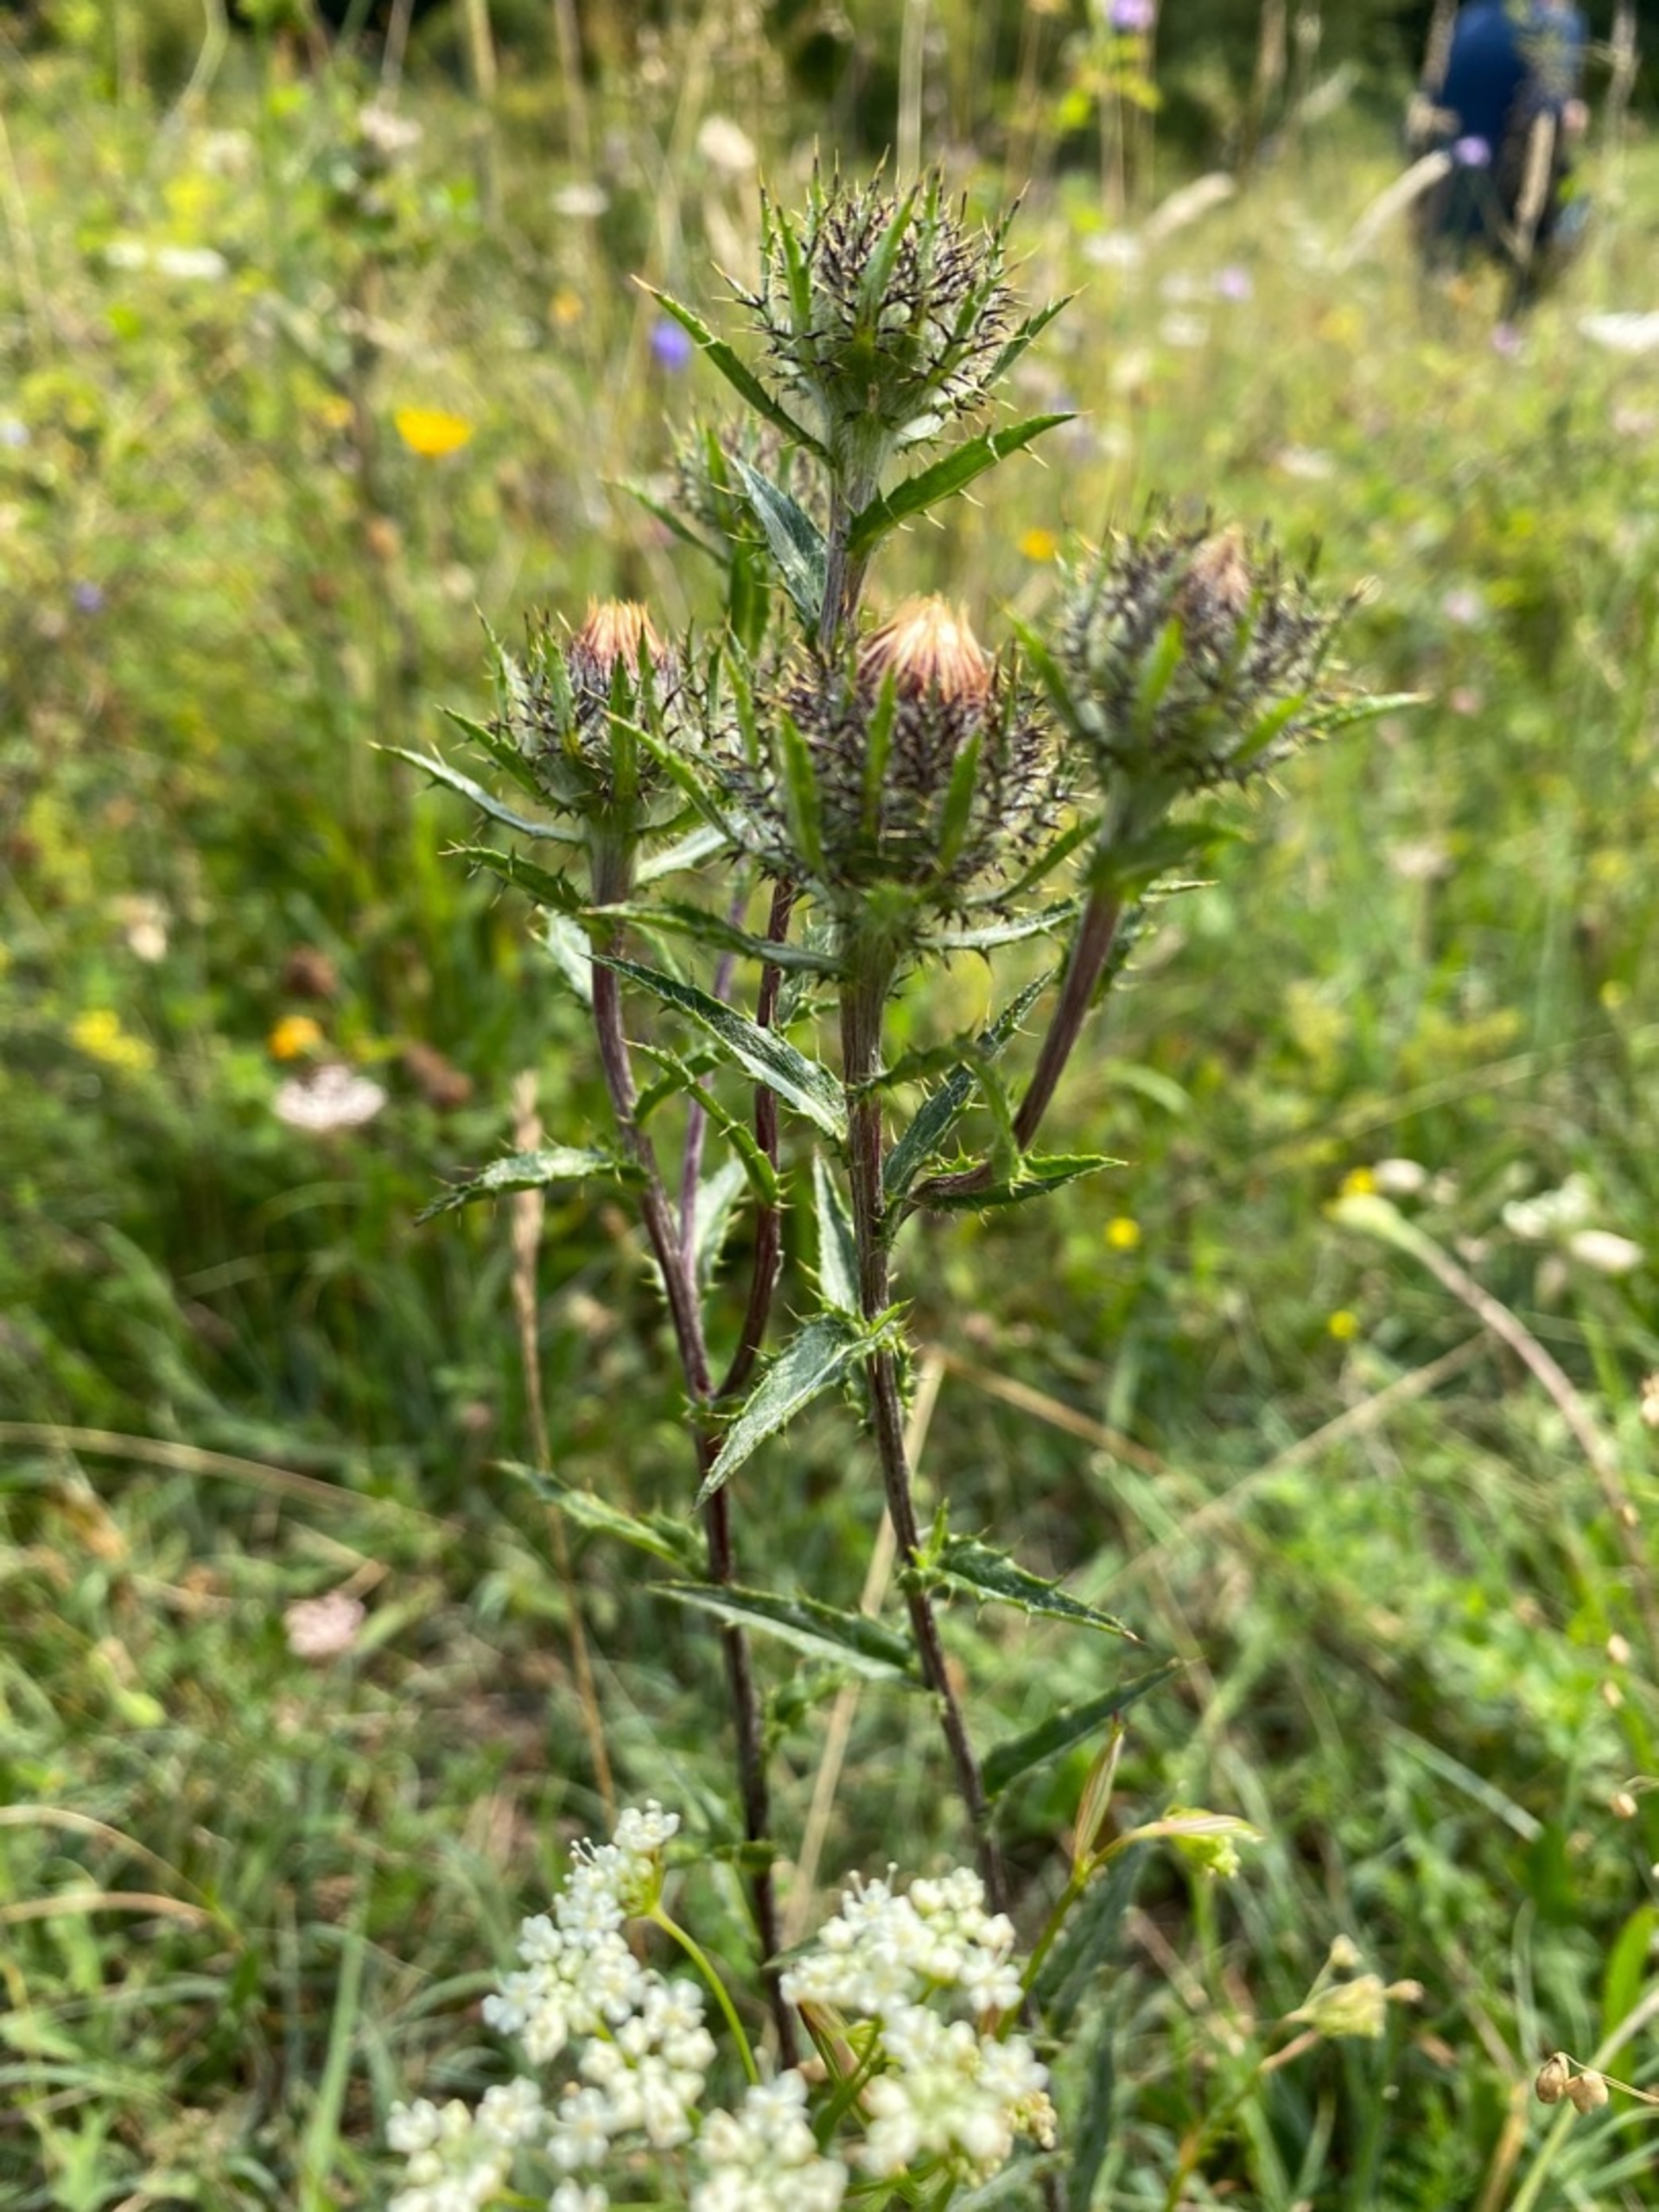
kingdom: Plantae
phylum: Tracheophyta
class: Magnoliopsida
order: Asterales
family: Asteraceae
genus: Carlina
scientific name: Carlina vulgaris
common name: Bakketidsel
